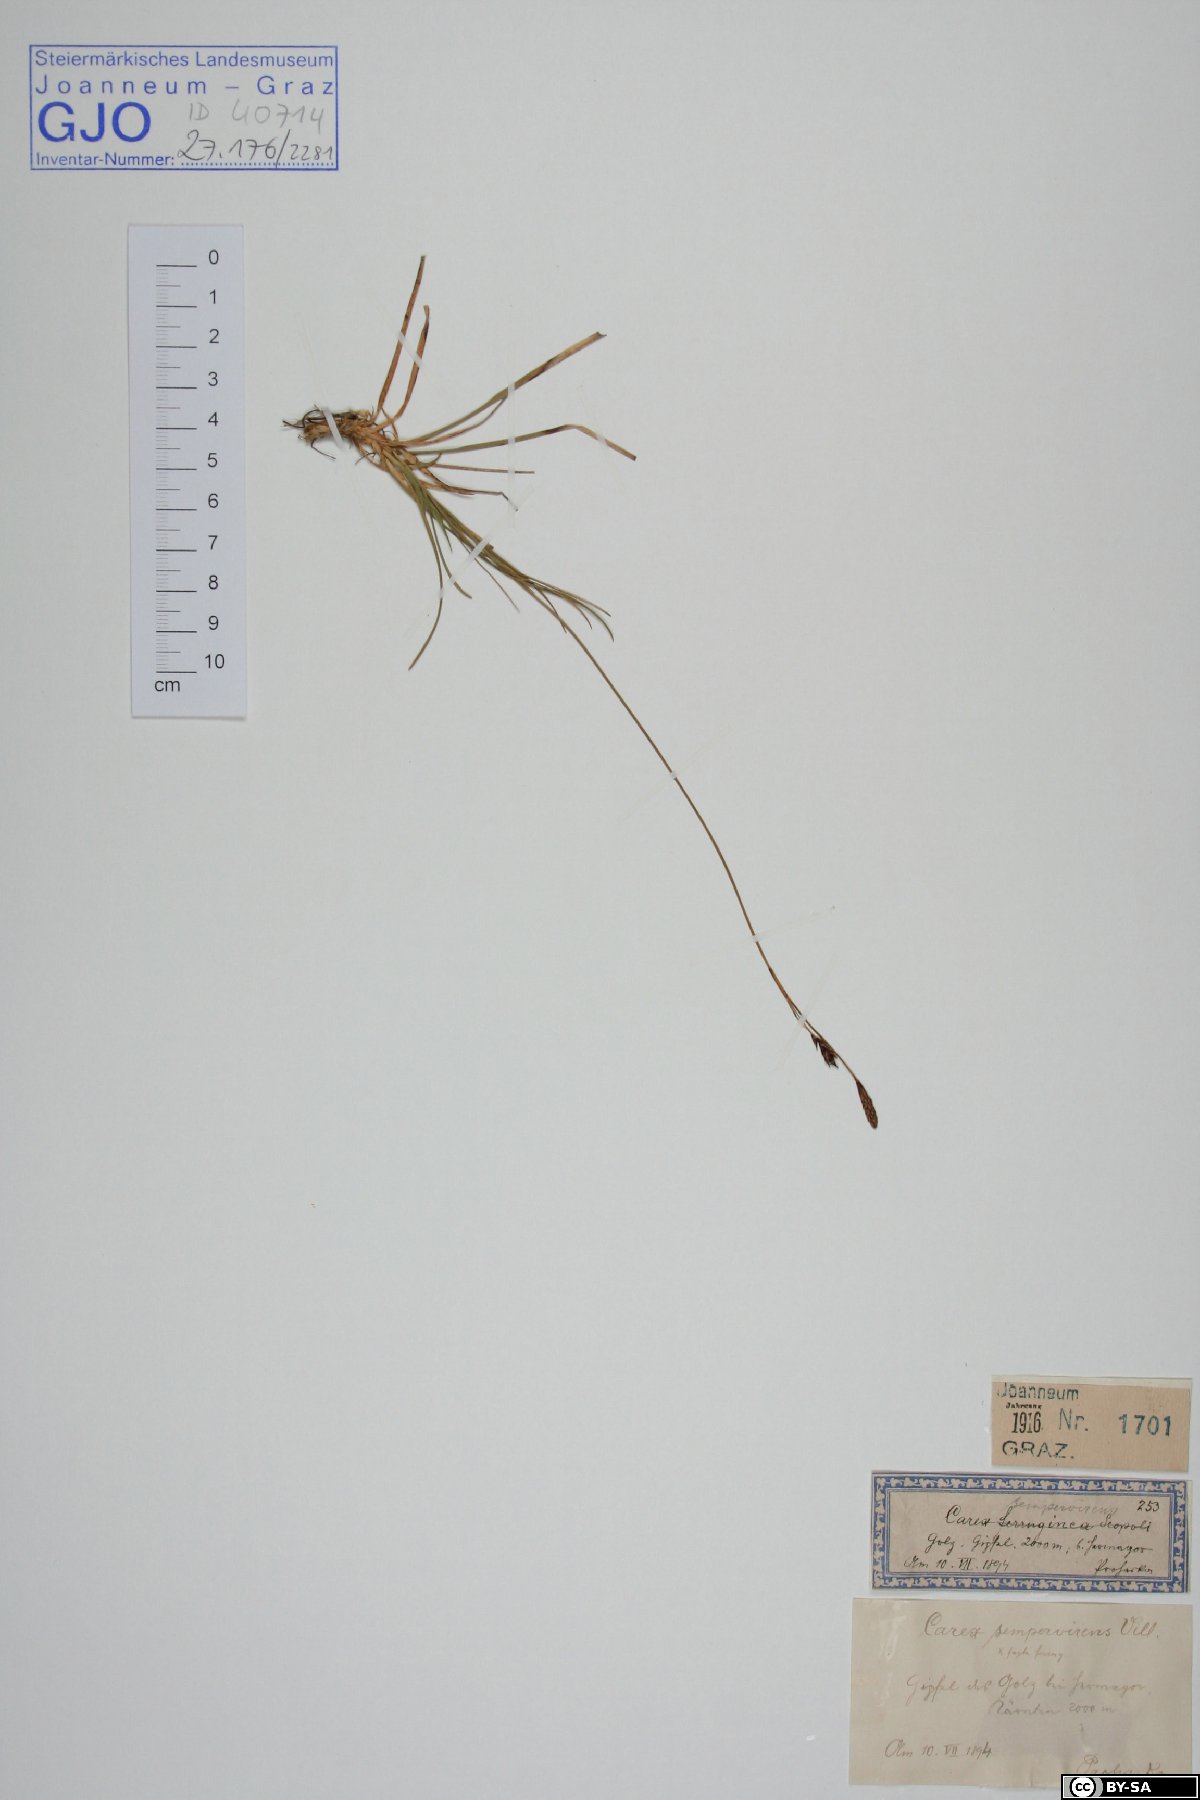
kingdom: Plantae
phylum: Tracheophyta
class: Liliopsida
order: Poales
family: Cyperaceae
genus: Carex
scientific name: Carex sempervirens
